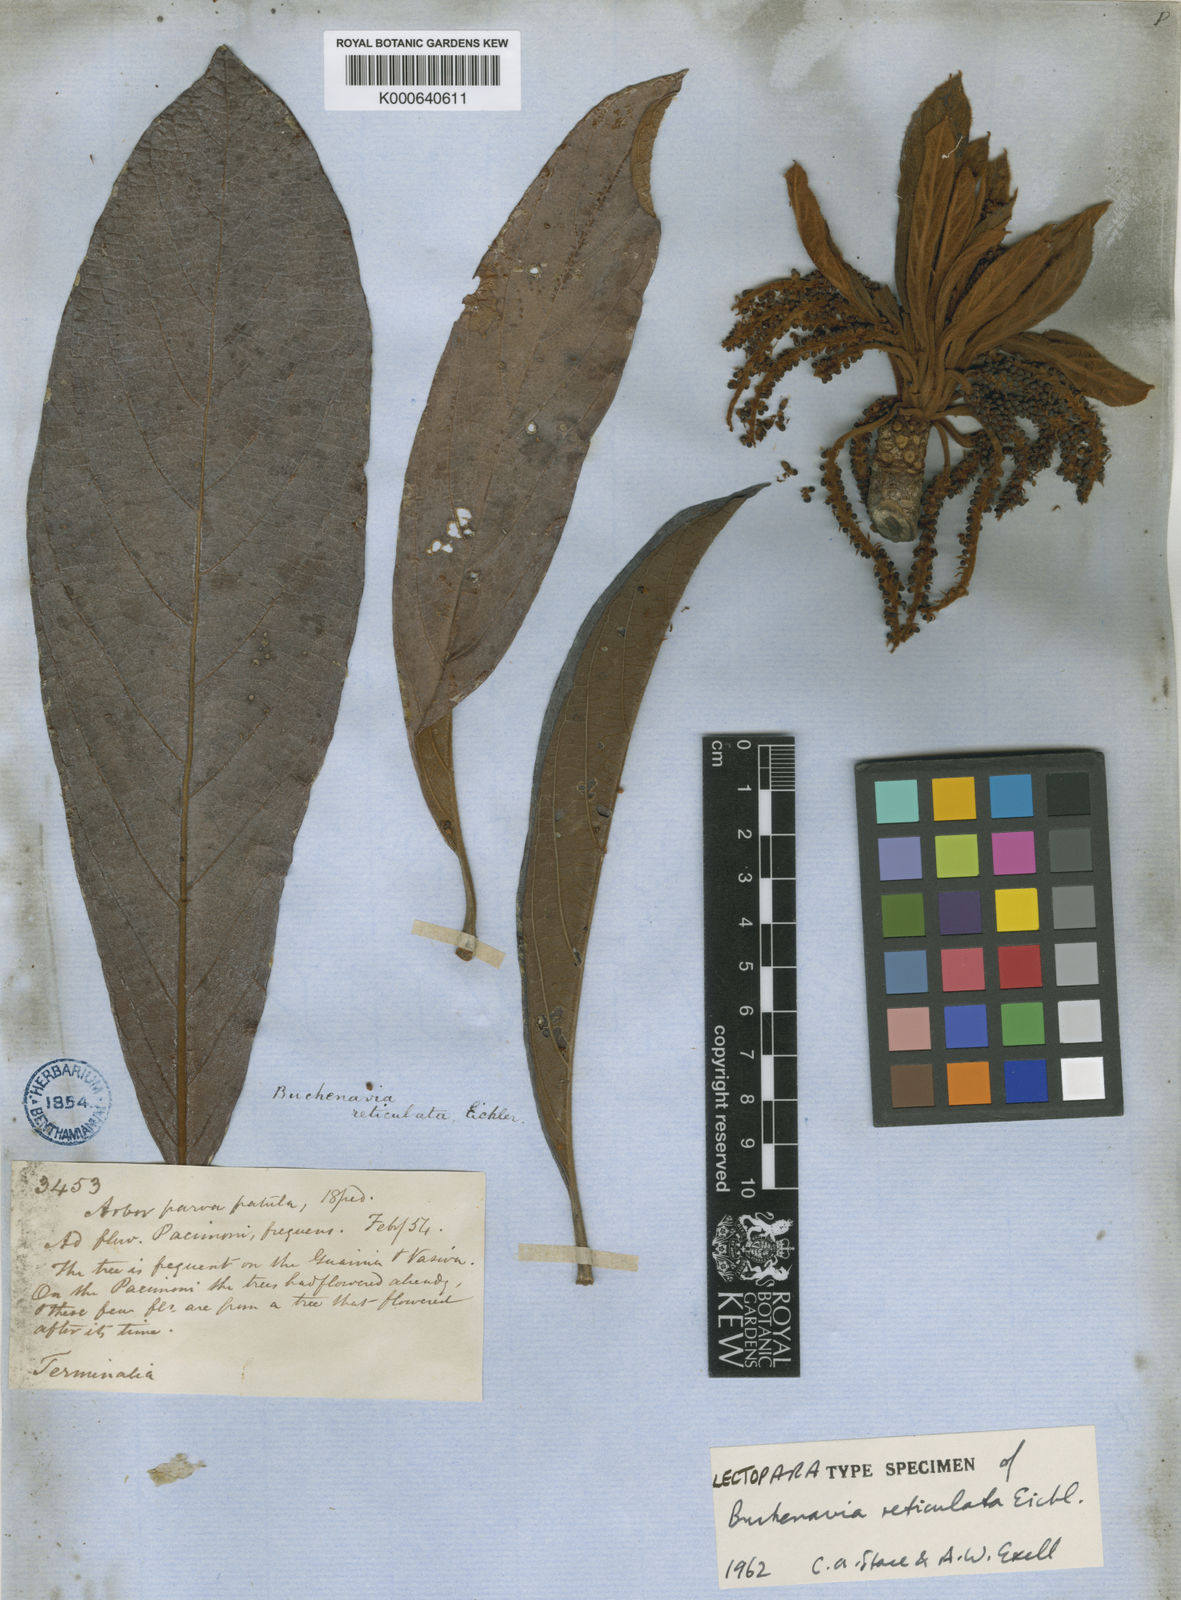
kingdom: Plantae
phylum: Tracheophyta
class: Magnoliopsida
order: Myrtales
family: Combretaceae
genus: Terminalia
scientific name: Terminalia pulcherrima
